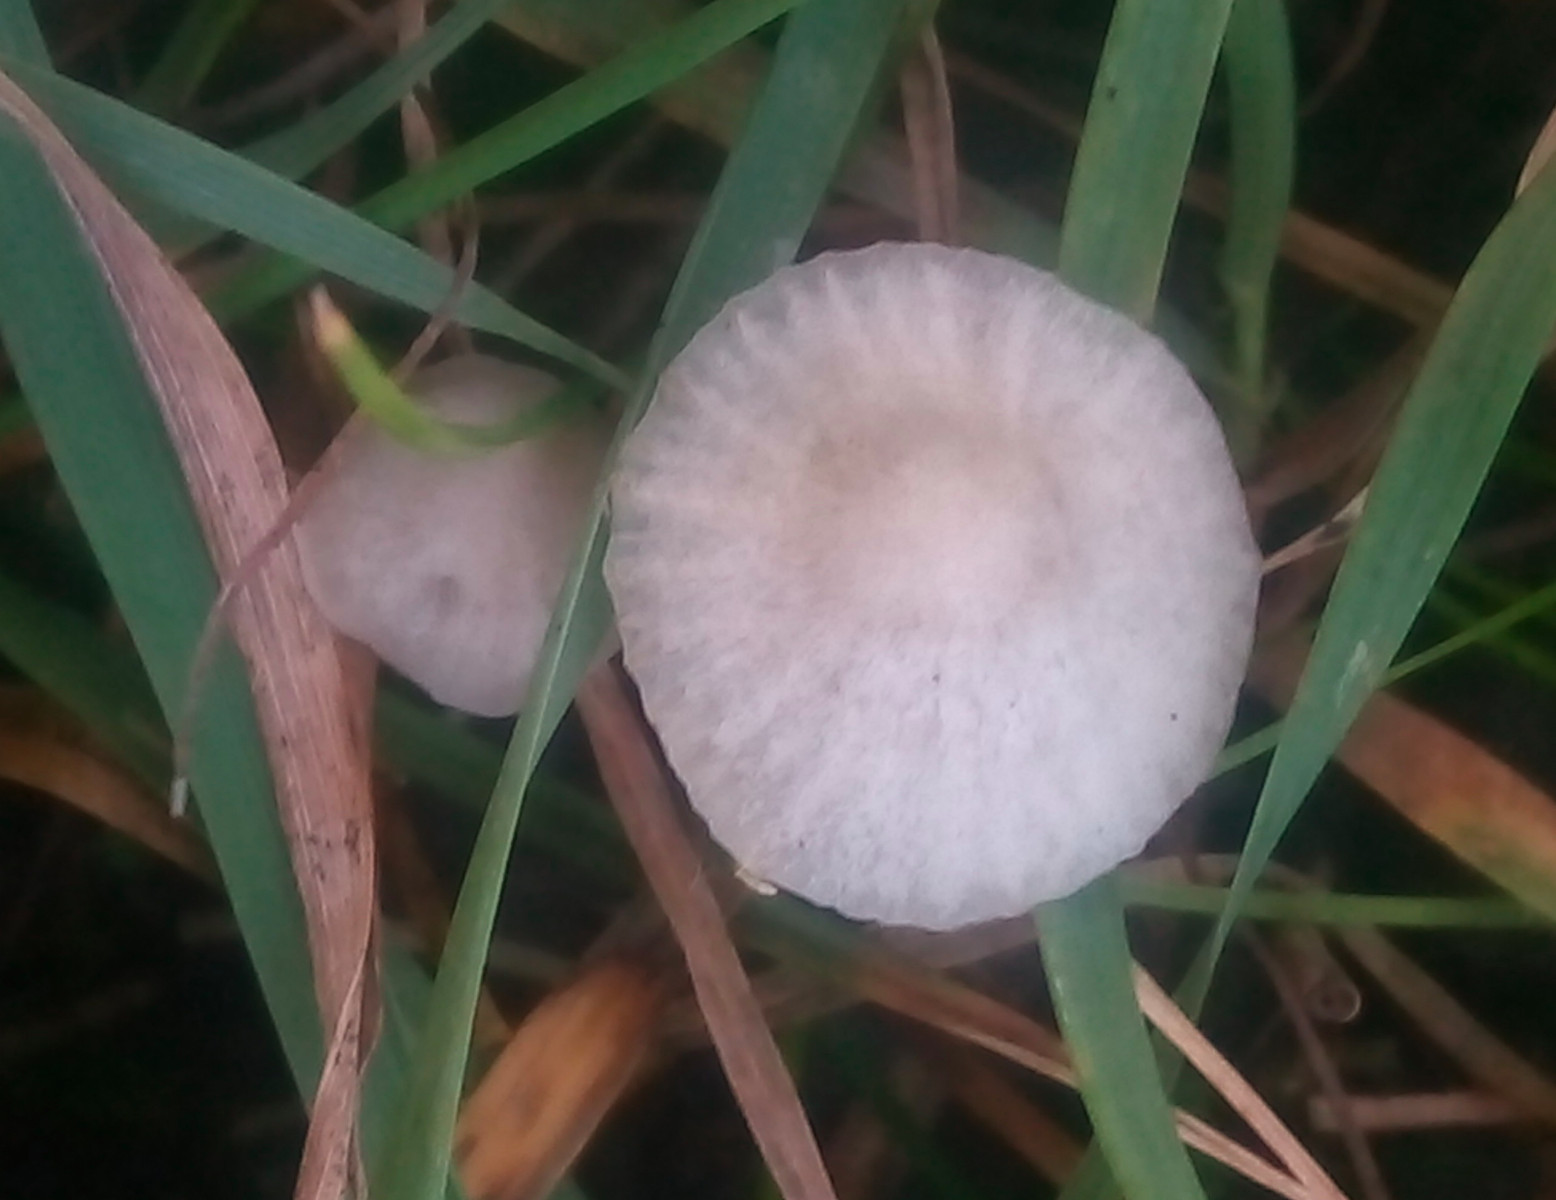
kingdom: Fungi
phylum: Basidiomycota
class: Agaricomycetes
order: Agaricales
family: Mycenaceae
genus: Hemimycena
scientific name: Hemimycena mairei
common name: voks-huesvamp
